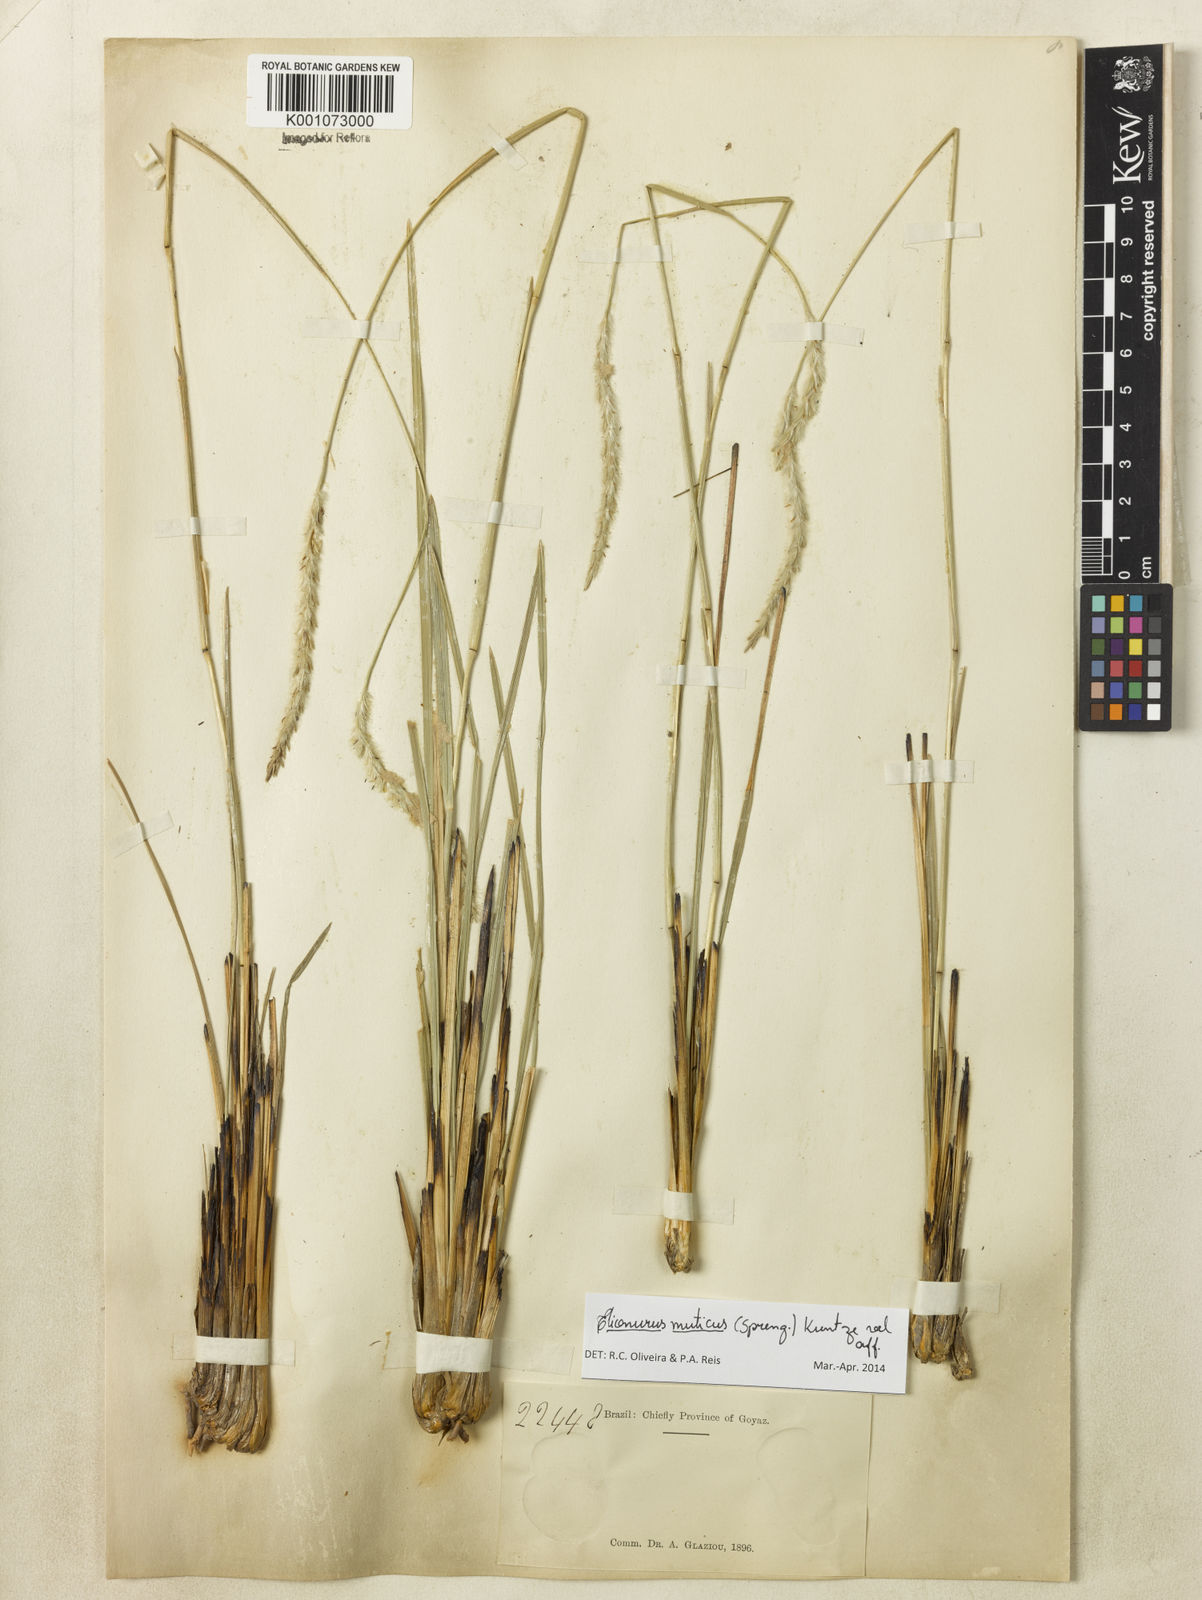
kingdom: Plantae
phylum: Tracheophyta
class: Liliopsida
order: Poales
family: Poaceae
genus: Elionurus
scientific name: Elionurus muticus
